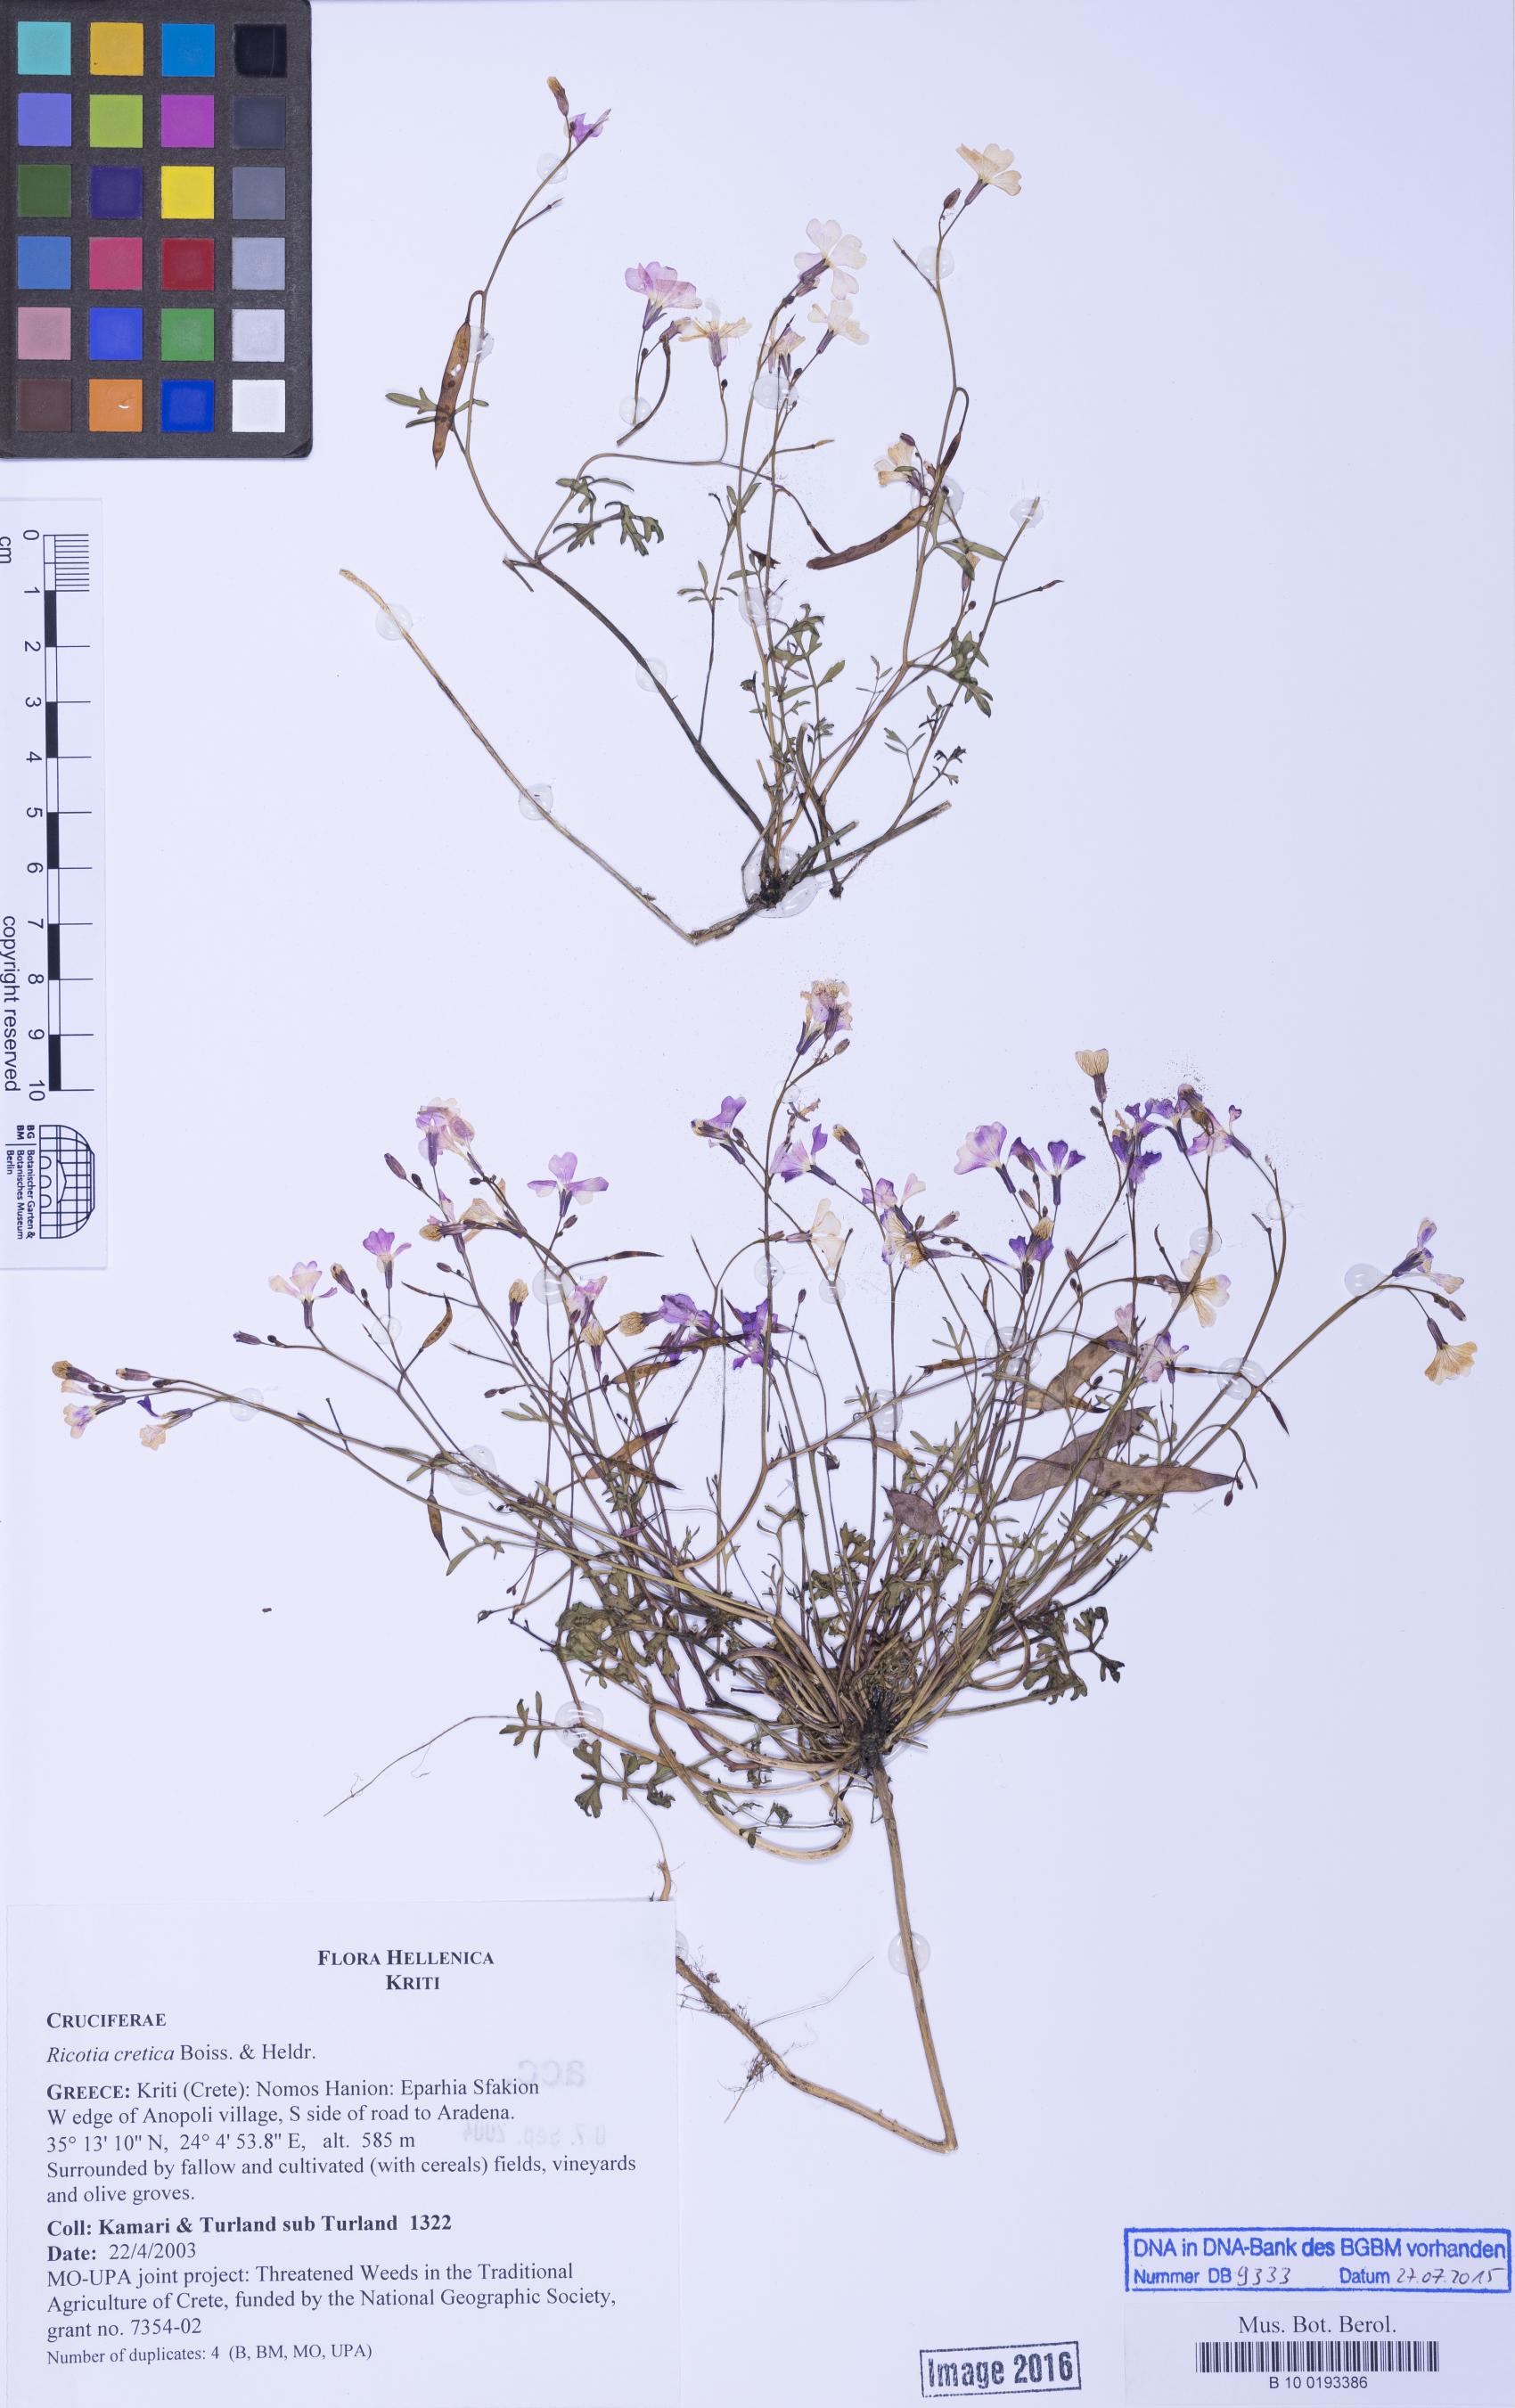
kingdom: Plantae
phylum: Tracheophyta
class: Magnoliopsida
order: Brassicales
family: Brassicaceae
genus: Ricotia
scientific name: Ricotia cretica
